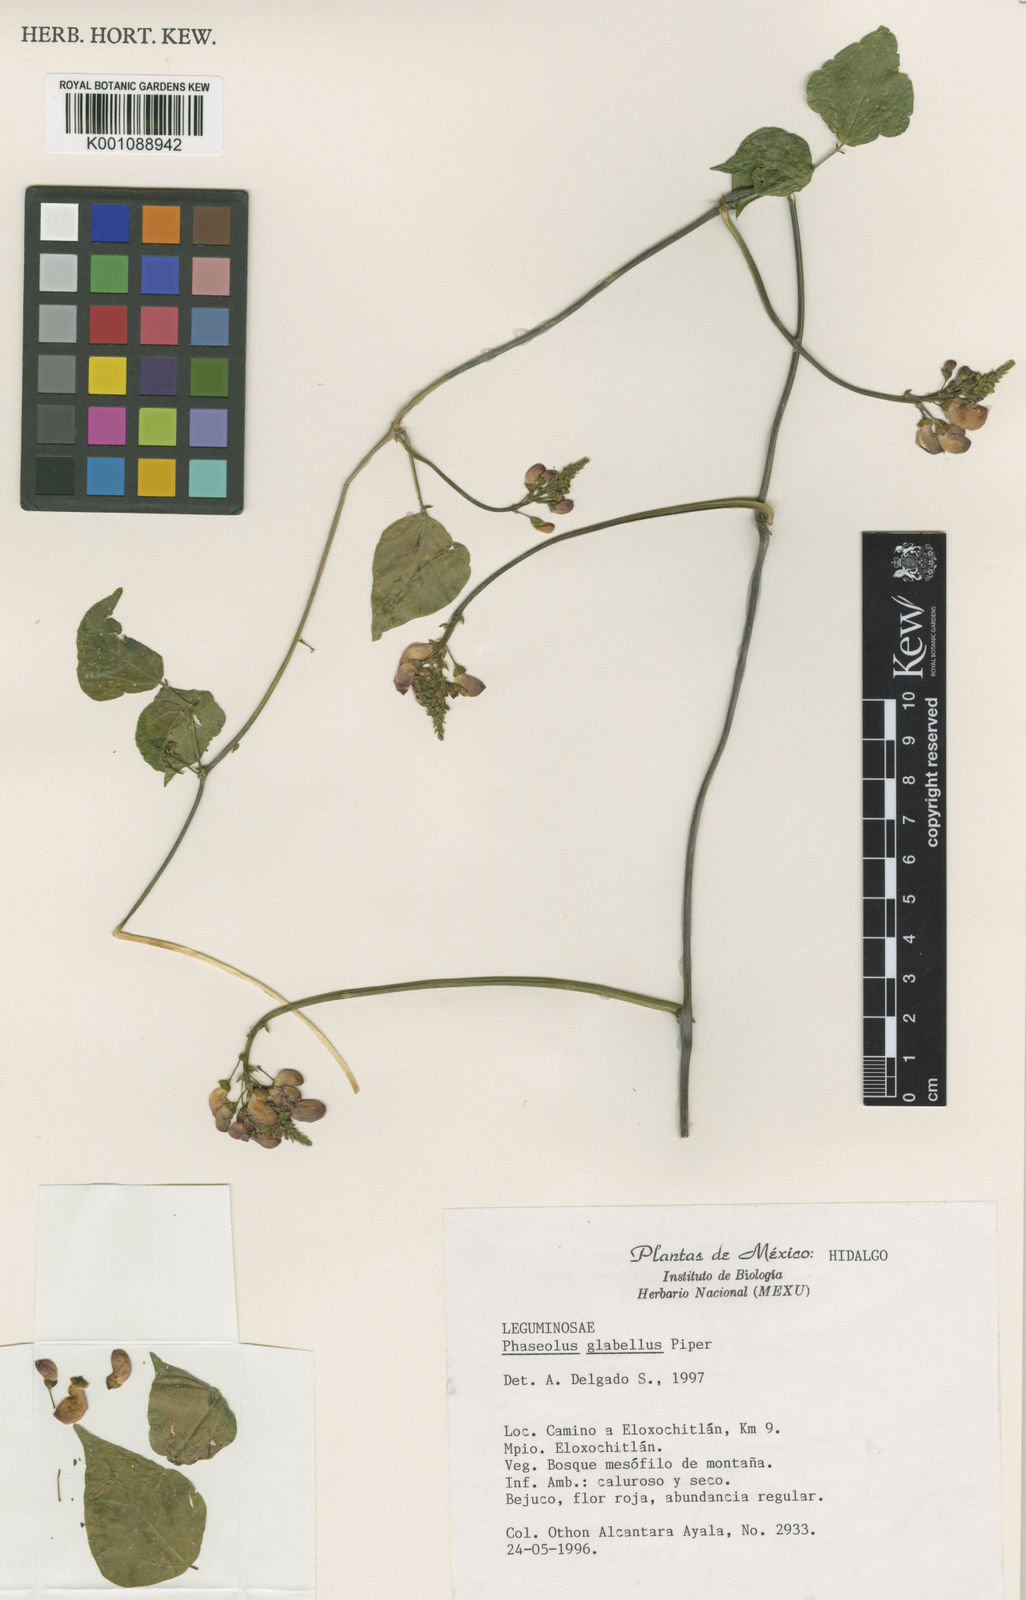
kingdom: Plantae
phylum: Tracheophyta
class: Magnoliopsida
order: Fabales
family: Fabaceae
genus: Phaseolus
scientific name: Phaseolus glabellus
